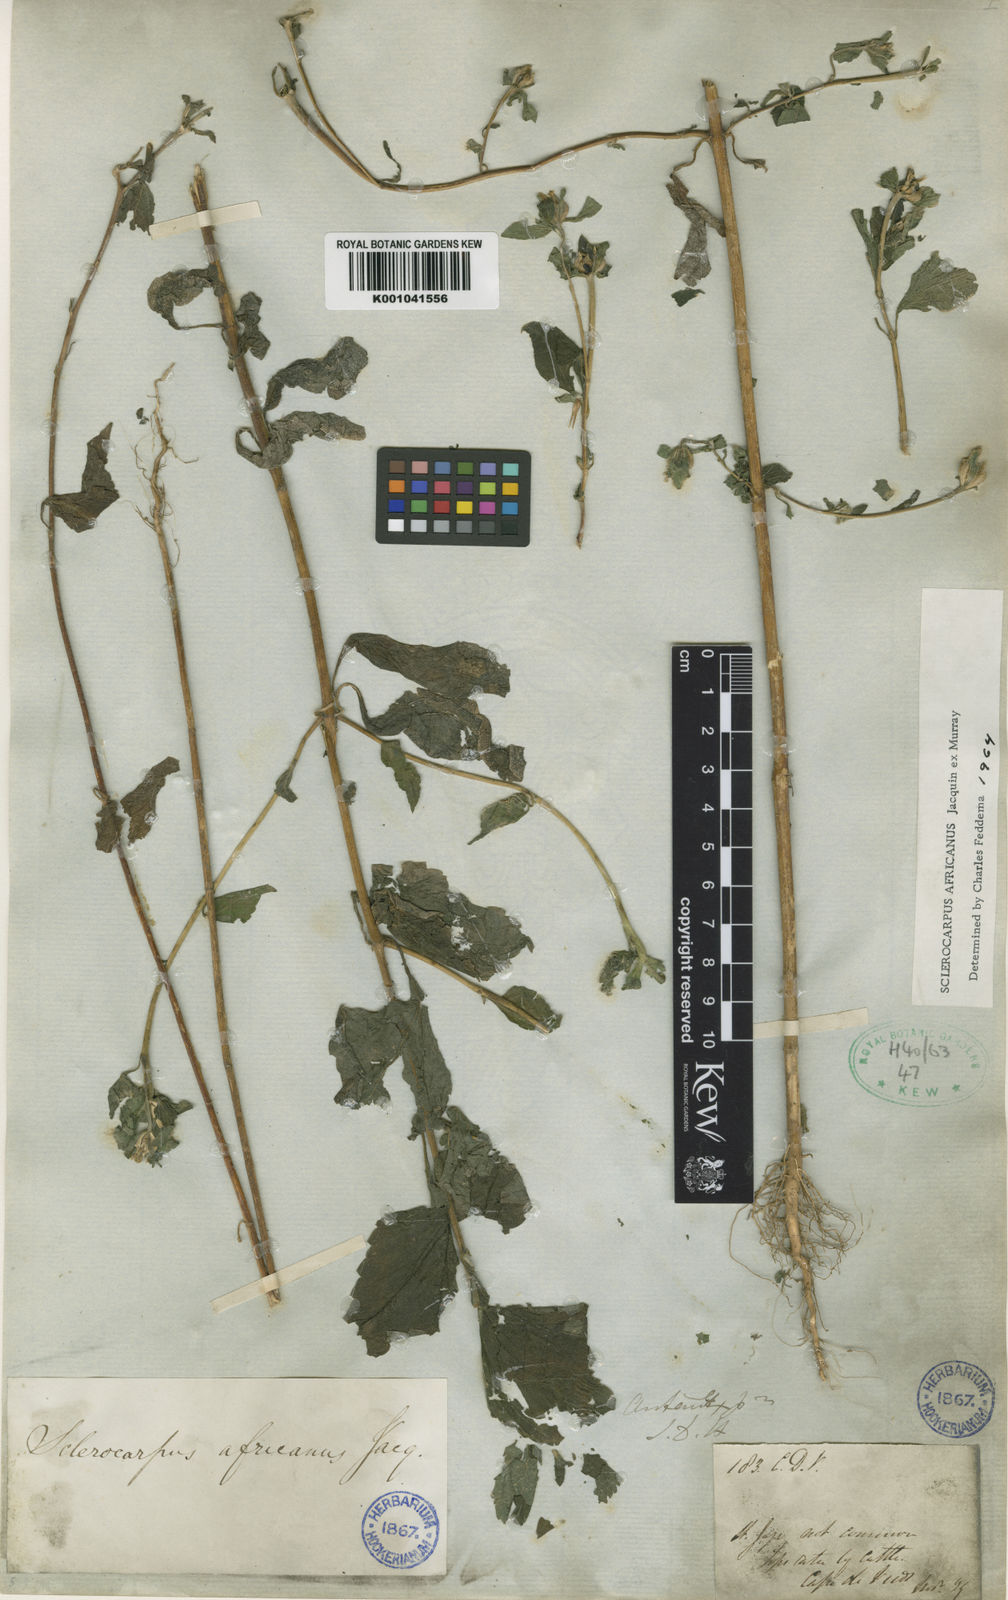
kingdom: Plantae
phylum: Tracheophyta
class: Magnoliopsida
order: Asterales
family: Asteraceae
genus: Sclerocarpus
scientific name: Sclerocarpus africanus
